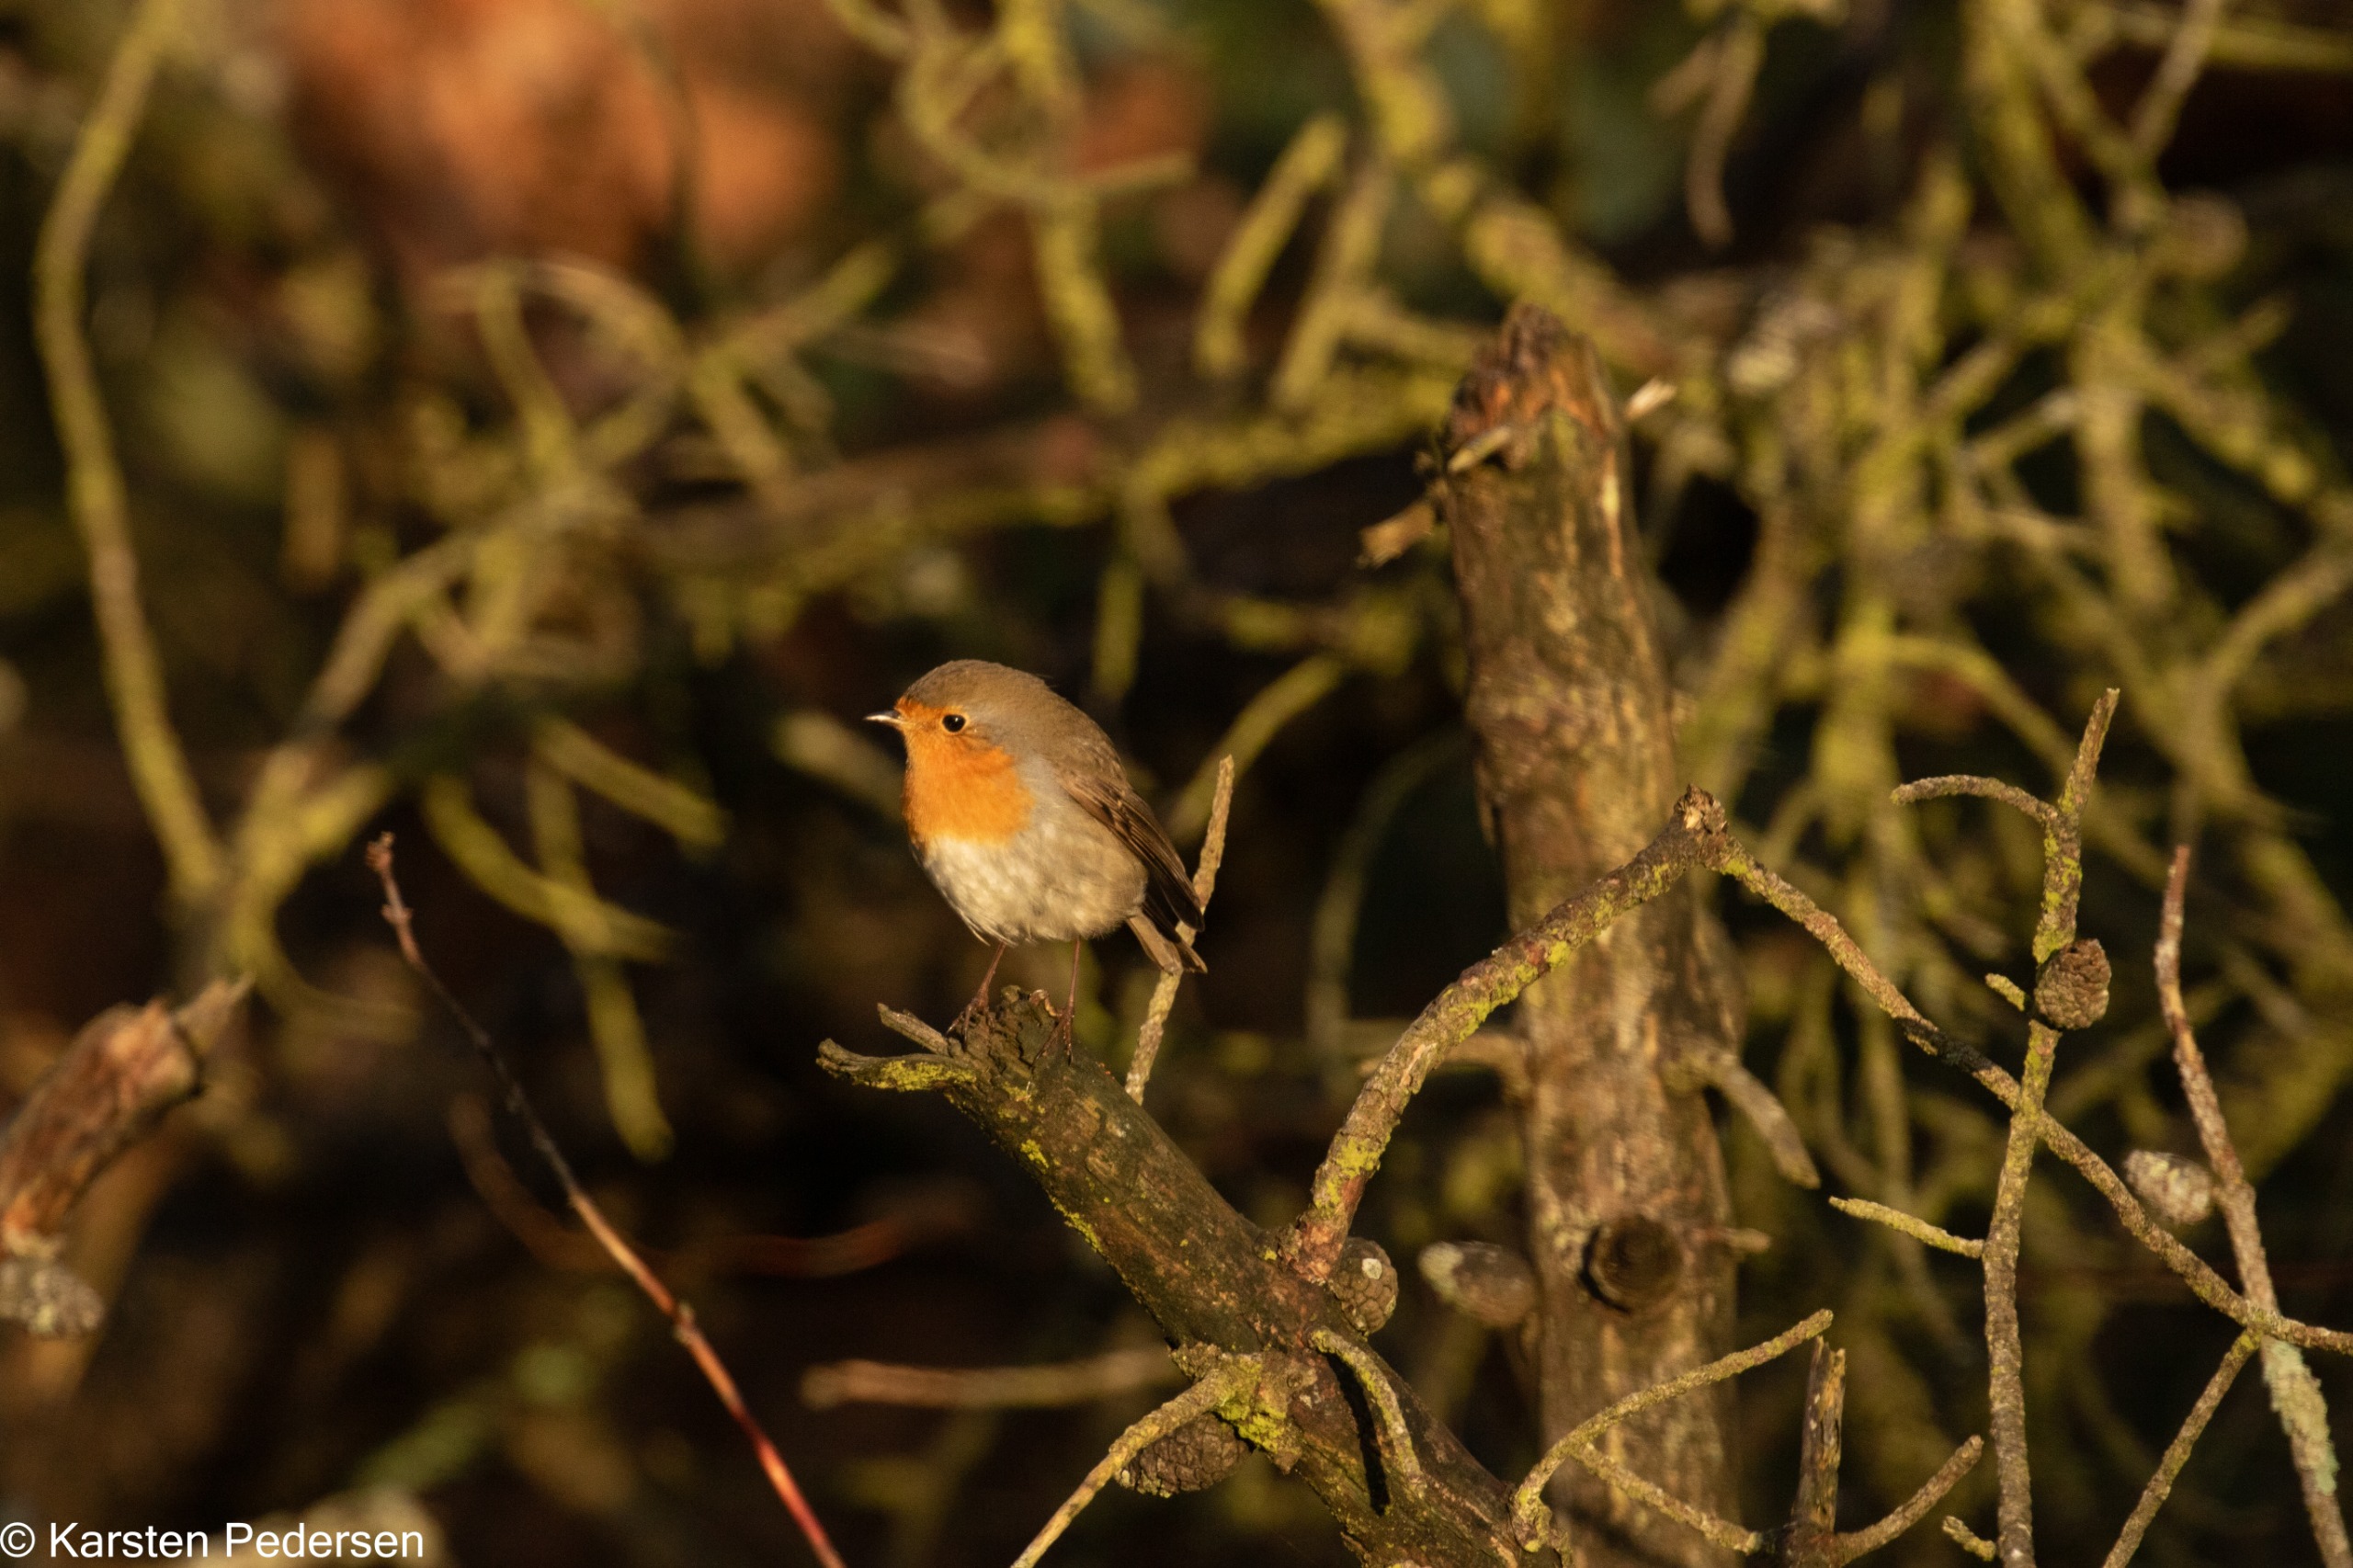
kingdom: Animalia
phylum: Chordata
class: Aves
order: Passeriformes
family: Muscicapidae
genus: Erithacus
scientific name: Erithacus rubecula
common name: Rødhals/rødkælk
